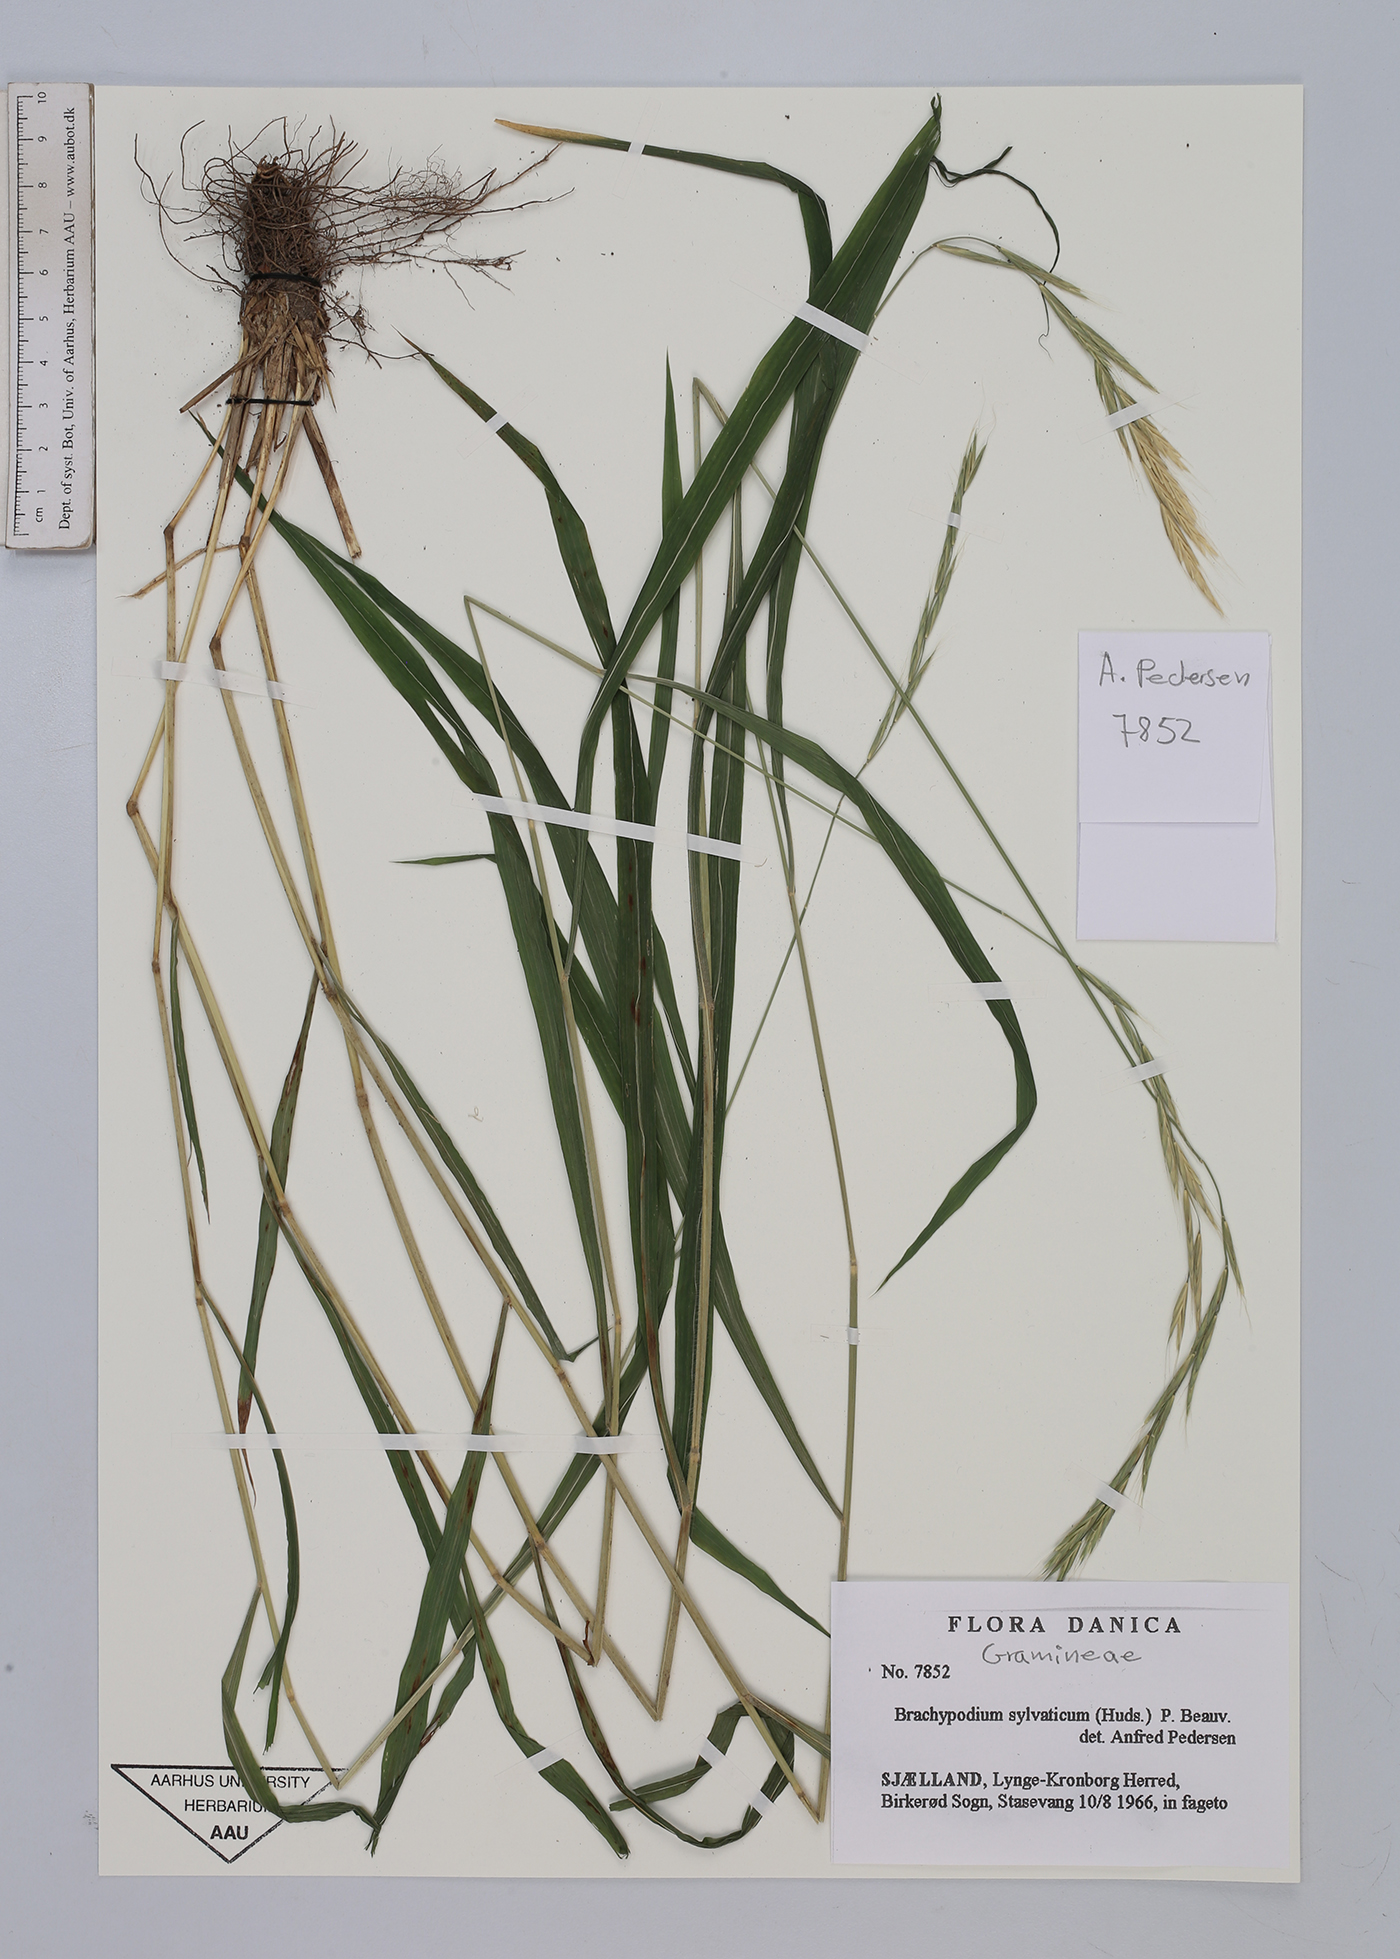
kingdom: Plantae
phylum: Tracheophyta
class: Liliopsida
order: Poales
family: Poaceae
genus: Brachypodium
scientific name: Brachypodium sylvaticum
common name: False-brome
